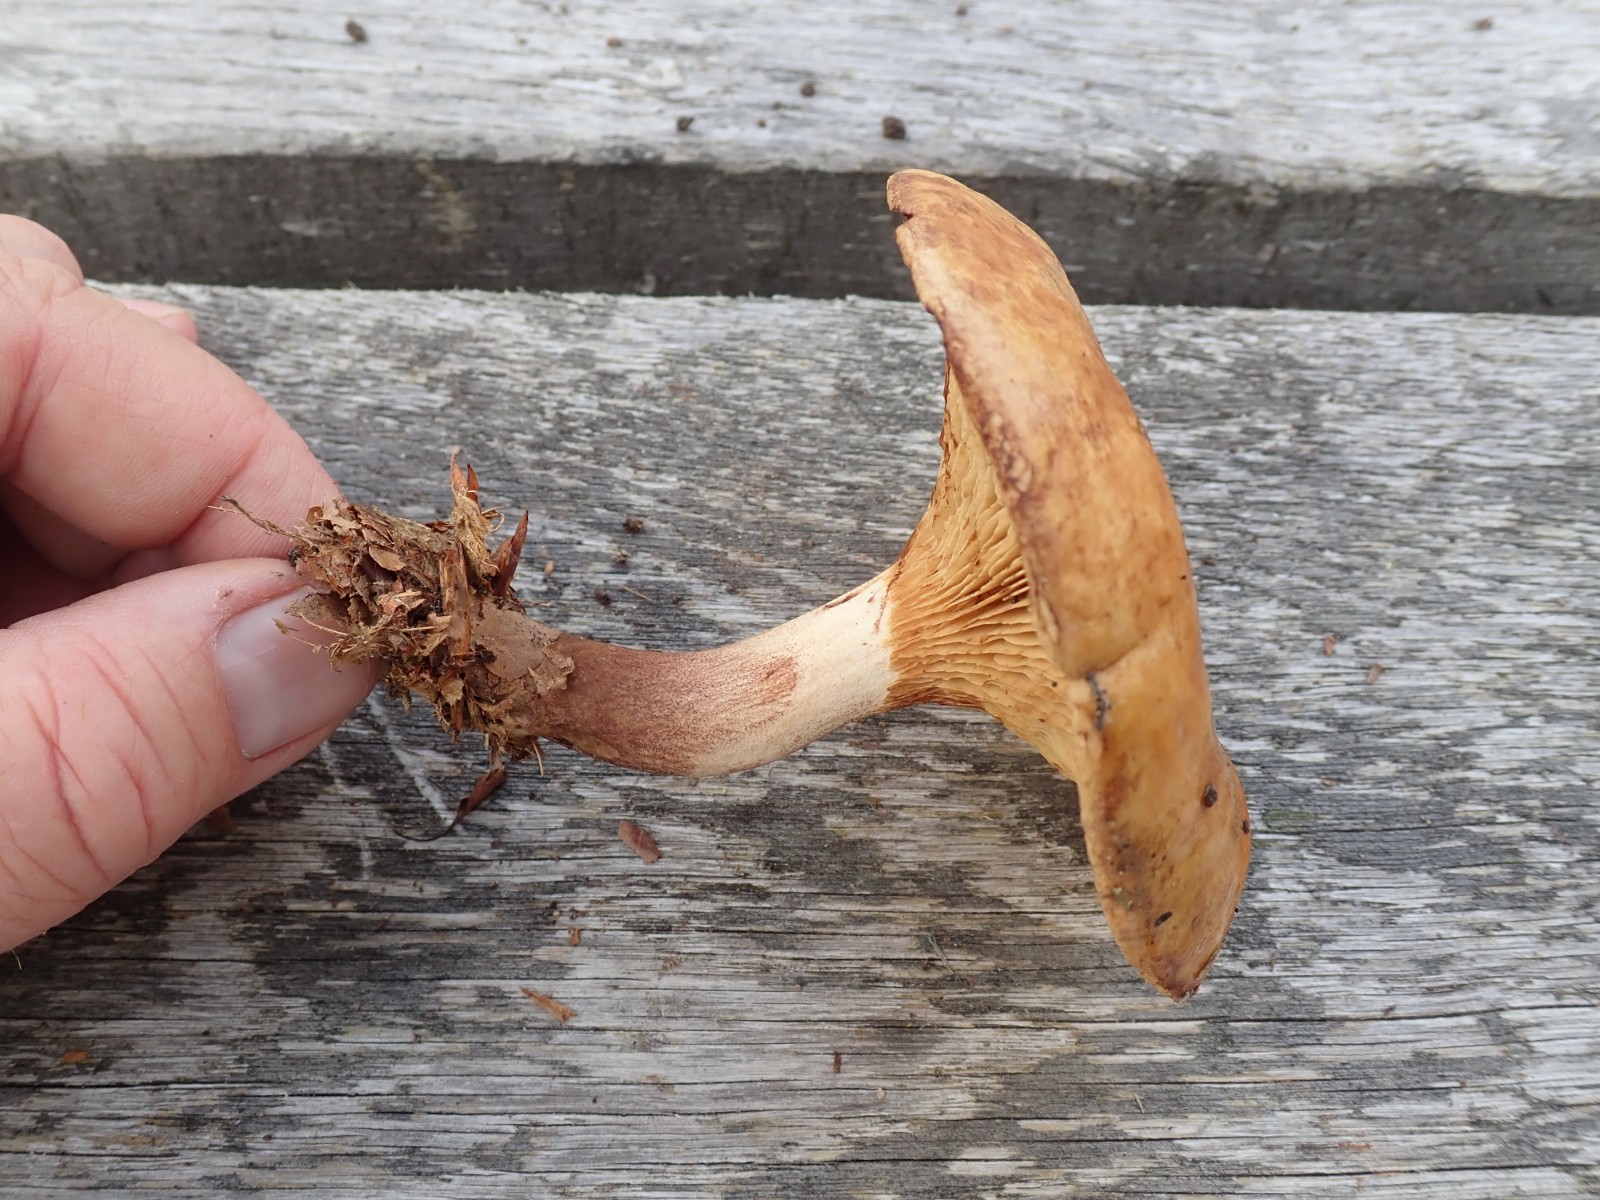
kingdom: Fungi
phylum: Basidiomycota
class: Agaricomycetes
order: Boletales
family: Paxillaceae
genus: Paxillus
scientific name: Paxillus
